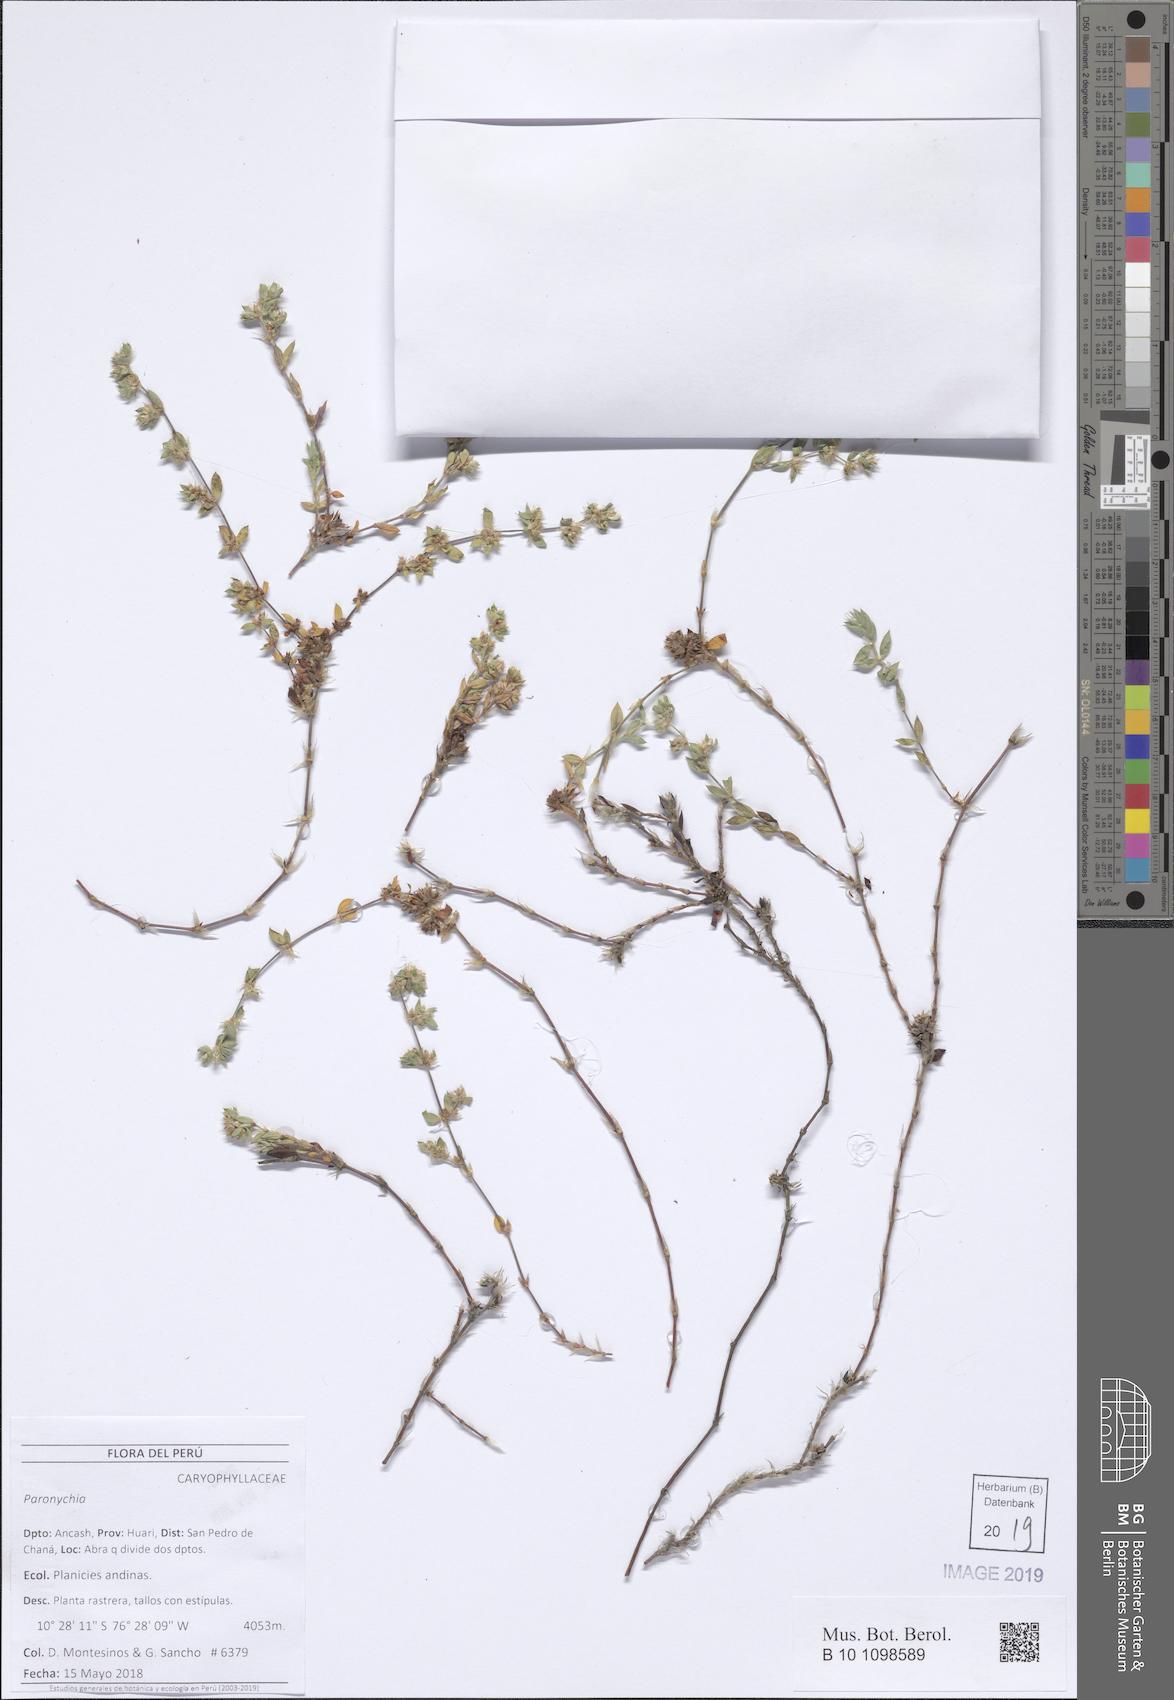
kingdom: Plantae
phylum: Tracheophyta
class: Magnoliopsida
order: Caryophyllales
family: Caryophyllaceae
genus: Paronychia
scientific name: Paronychia macbridei
